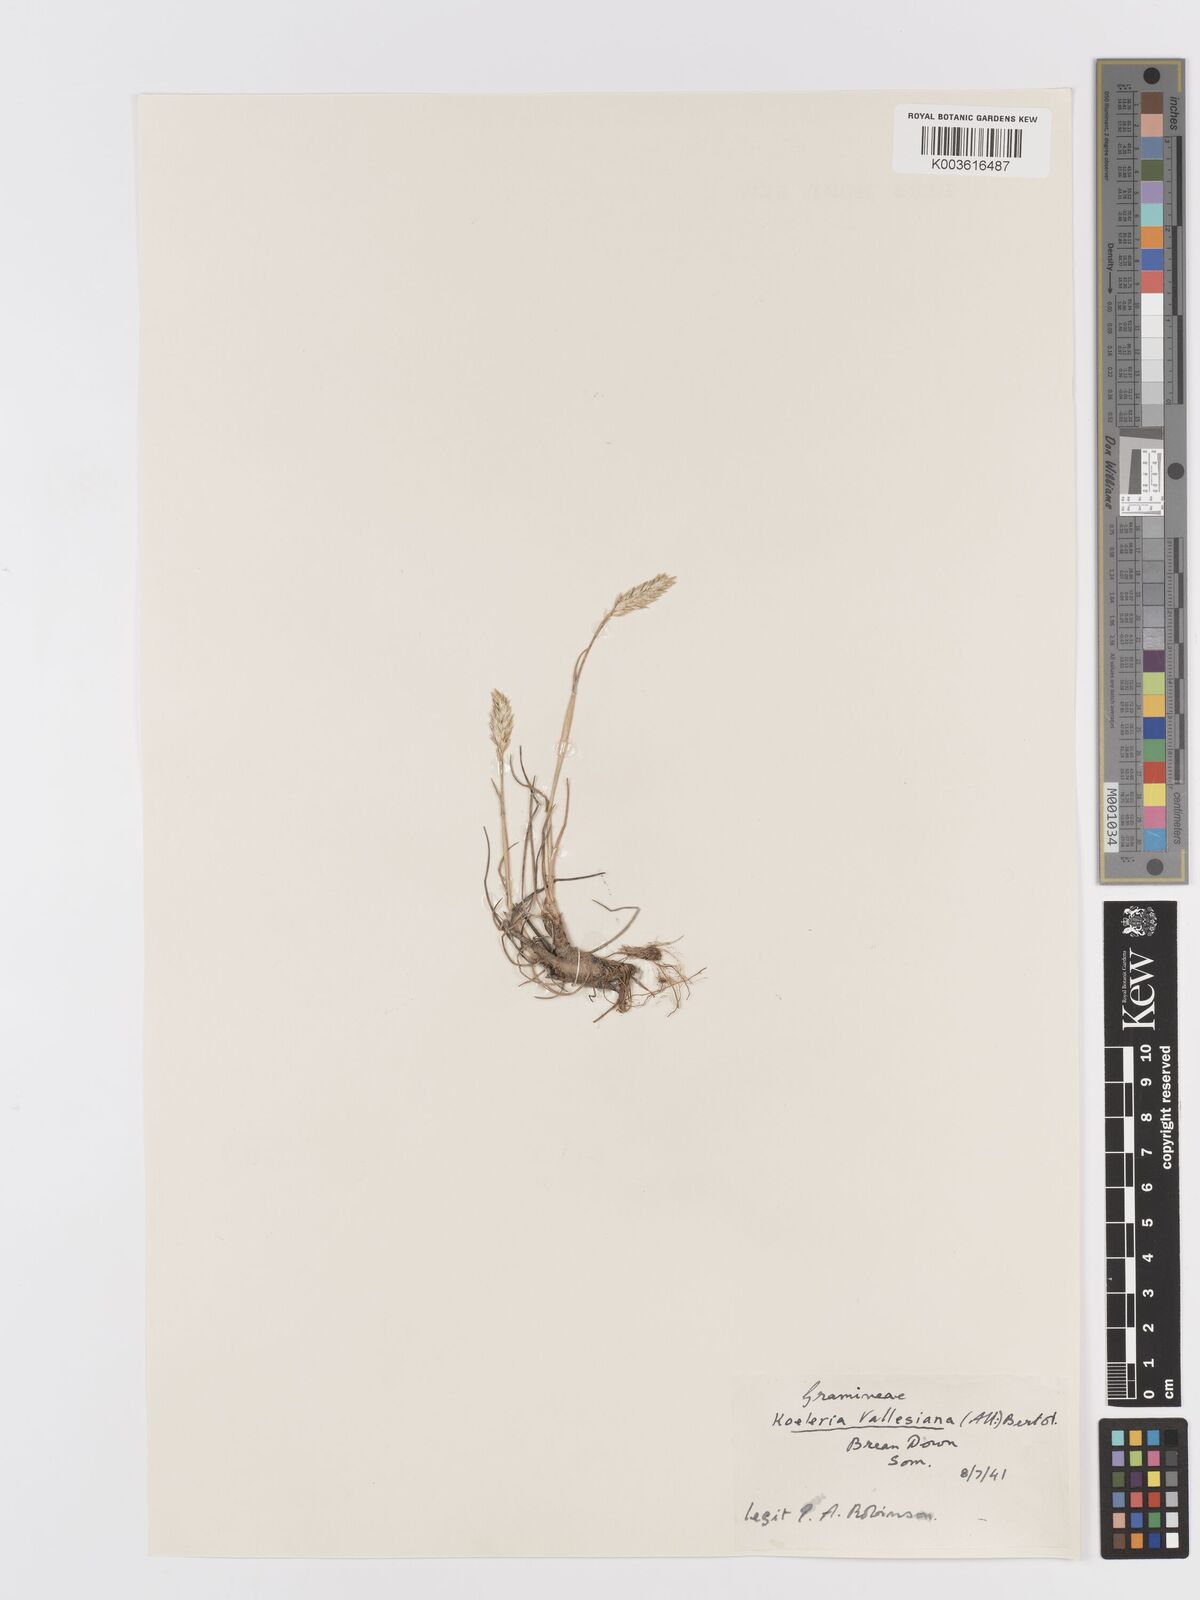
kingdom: Plantae
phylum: Tracheophyta
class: Liliopsida
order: Poales
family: Poaceae
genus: Koeleria
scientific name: Koeleria vallesiana
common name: Somerset hair-grass
